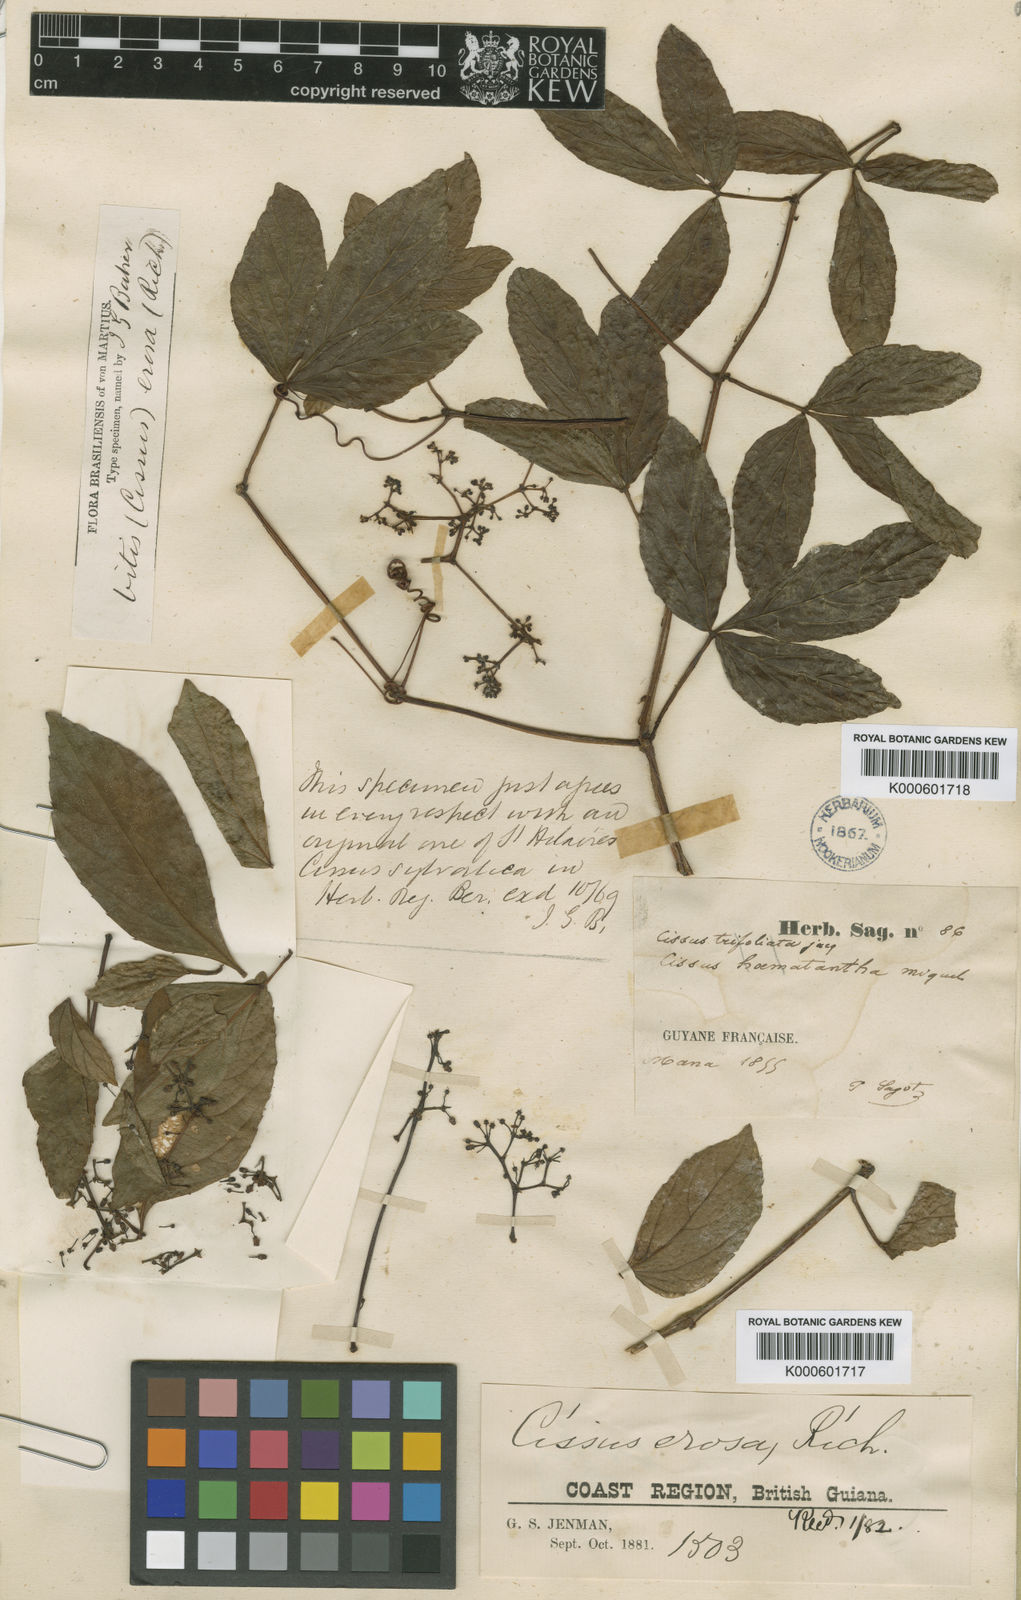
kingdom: Plantae
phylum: Tracheophyta
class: Magnoliopsida
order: Vitales
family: Vitaceae
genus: Cissus
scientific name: Cissus erosa
